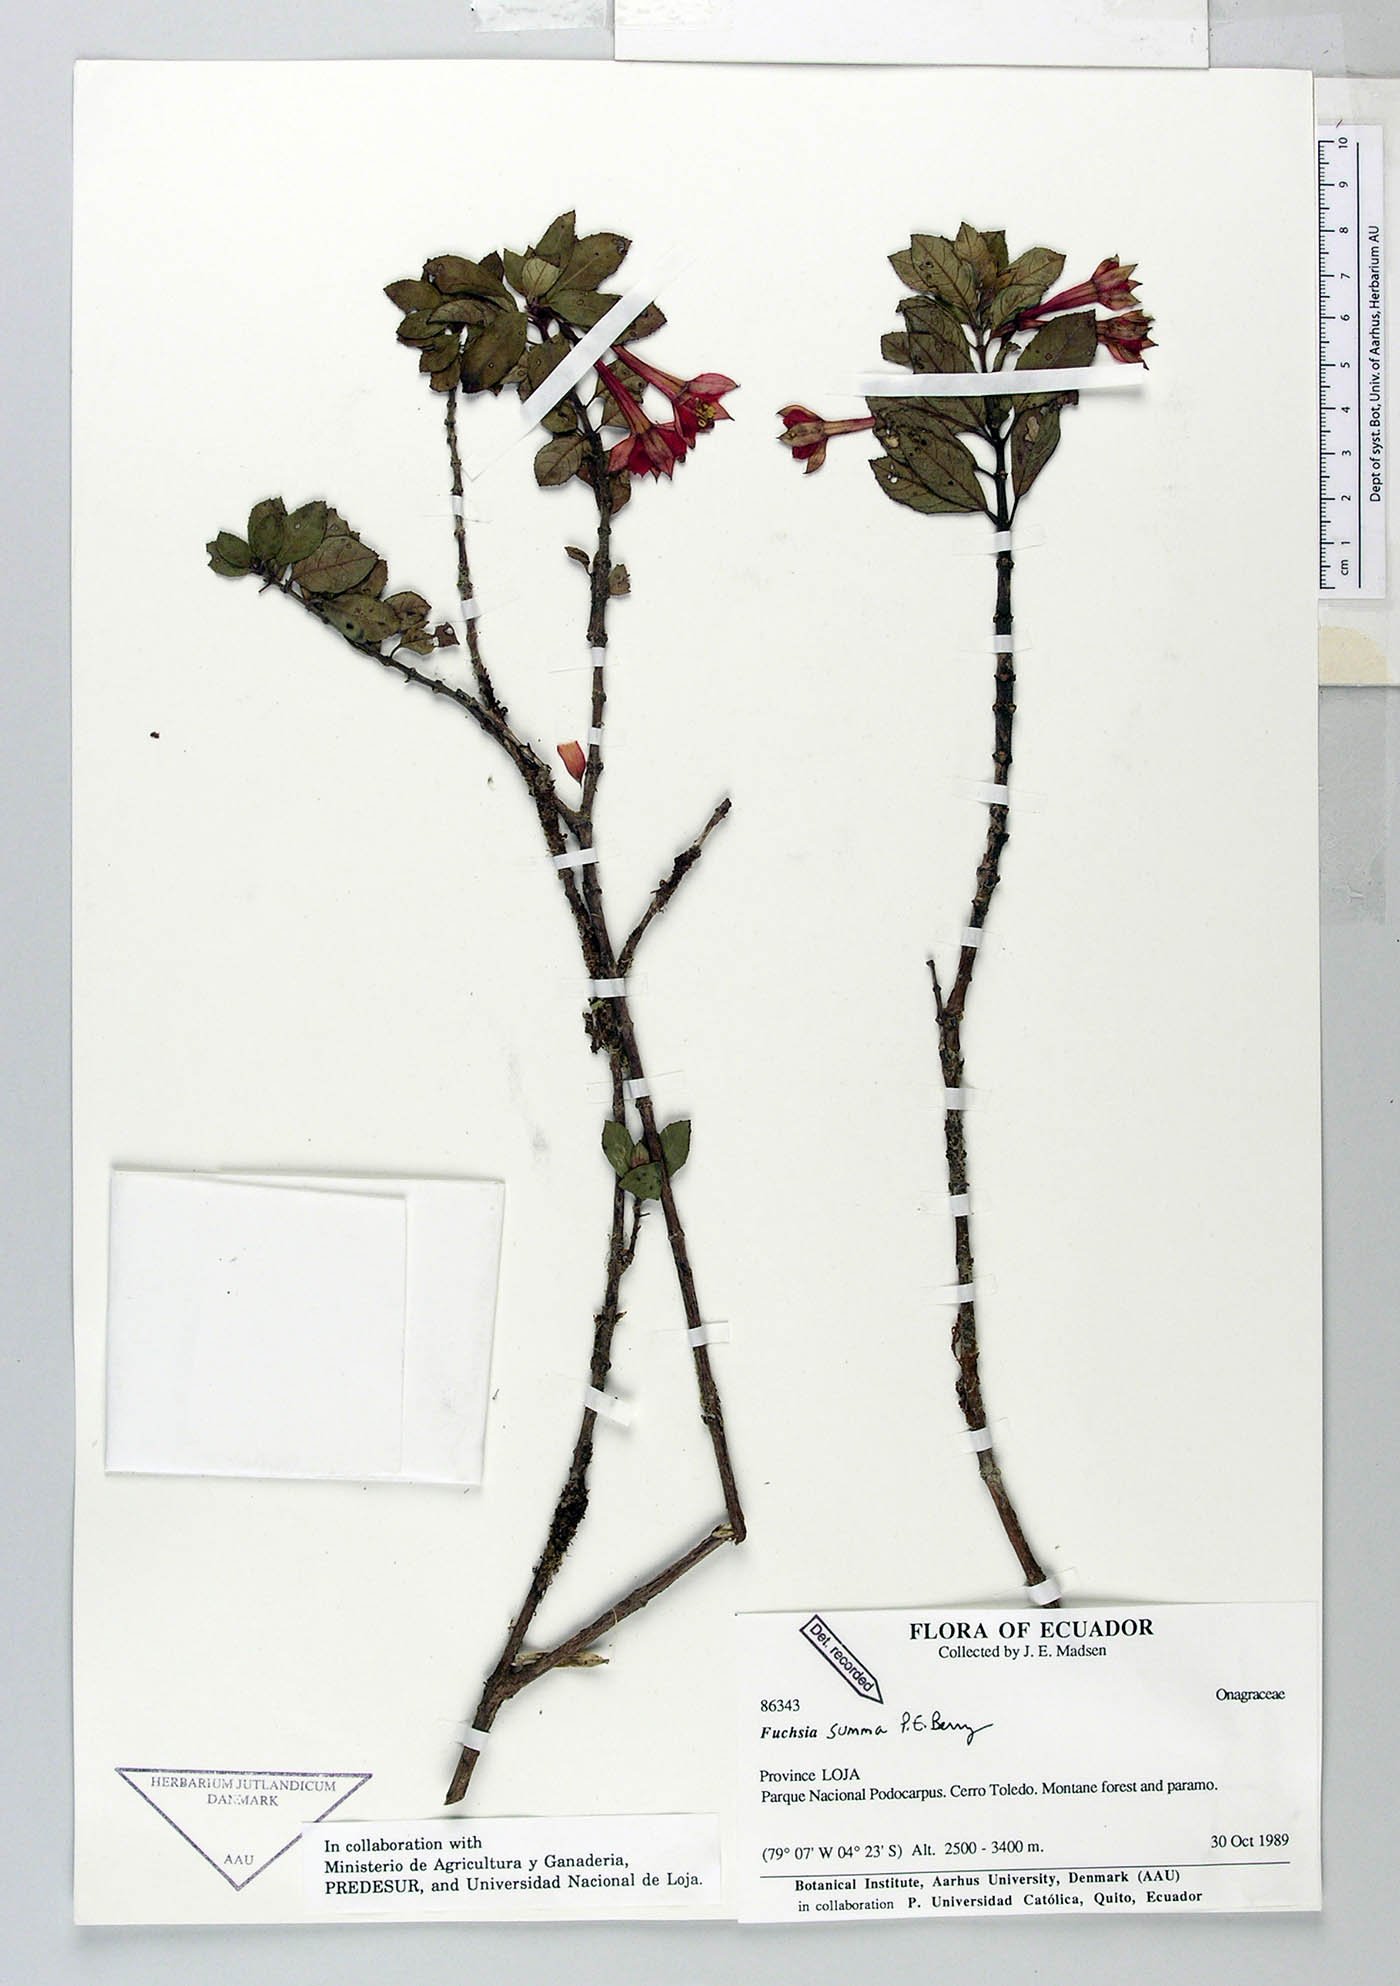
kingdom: Plantae
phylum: Tracheophyta
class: Magnoliopsida
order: Myrtales
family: Onagraceae
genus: Fuchsia
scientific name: Fuchsia summa
